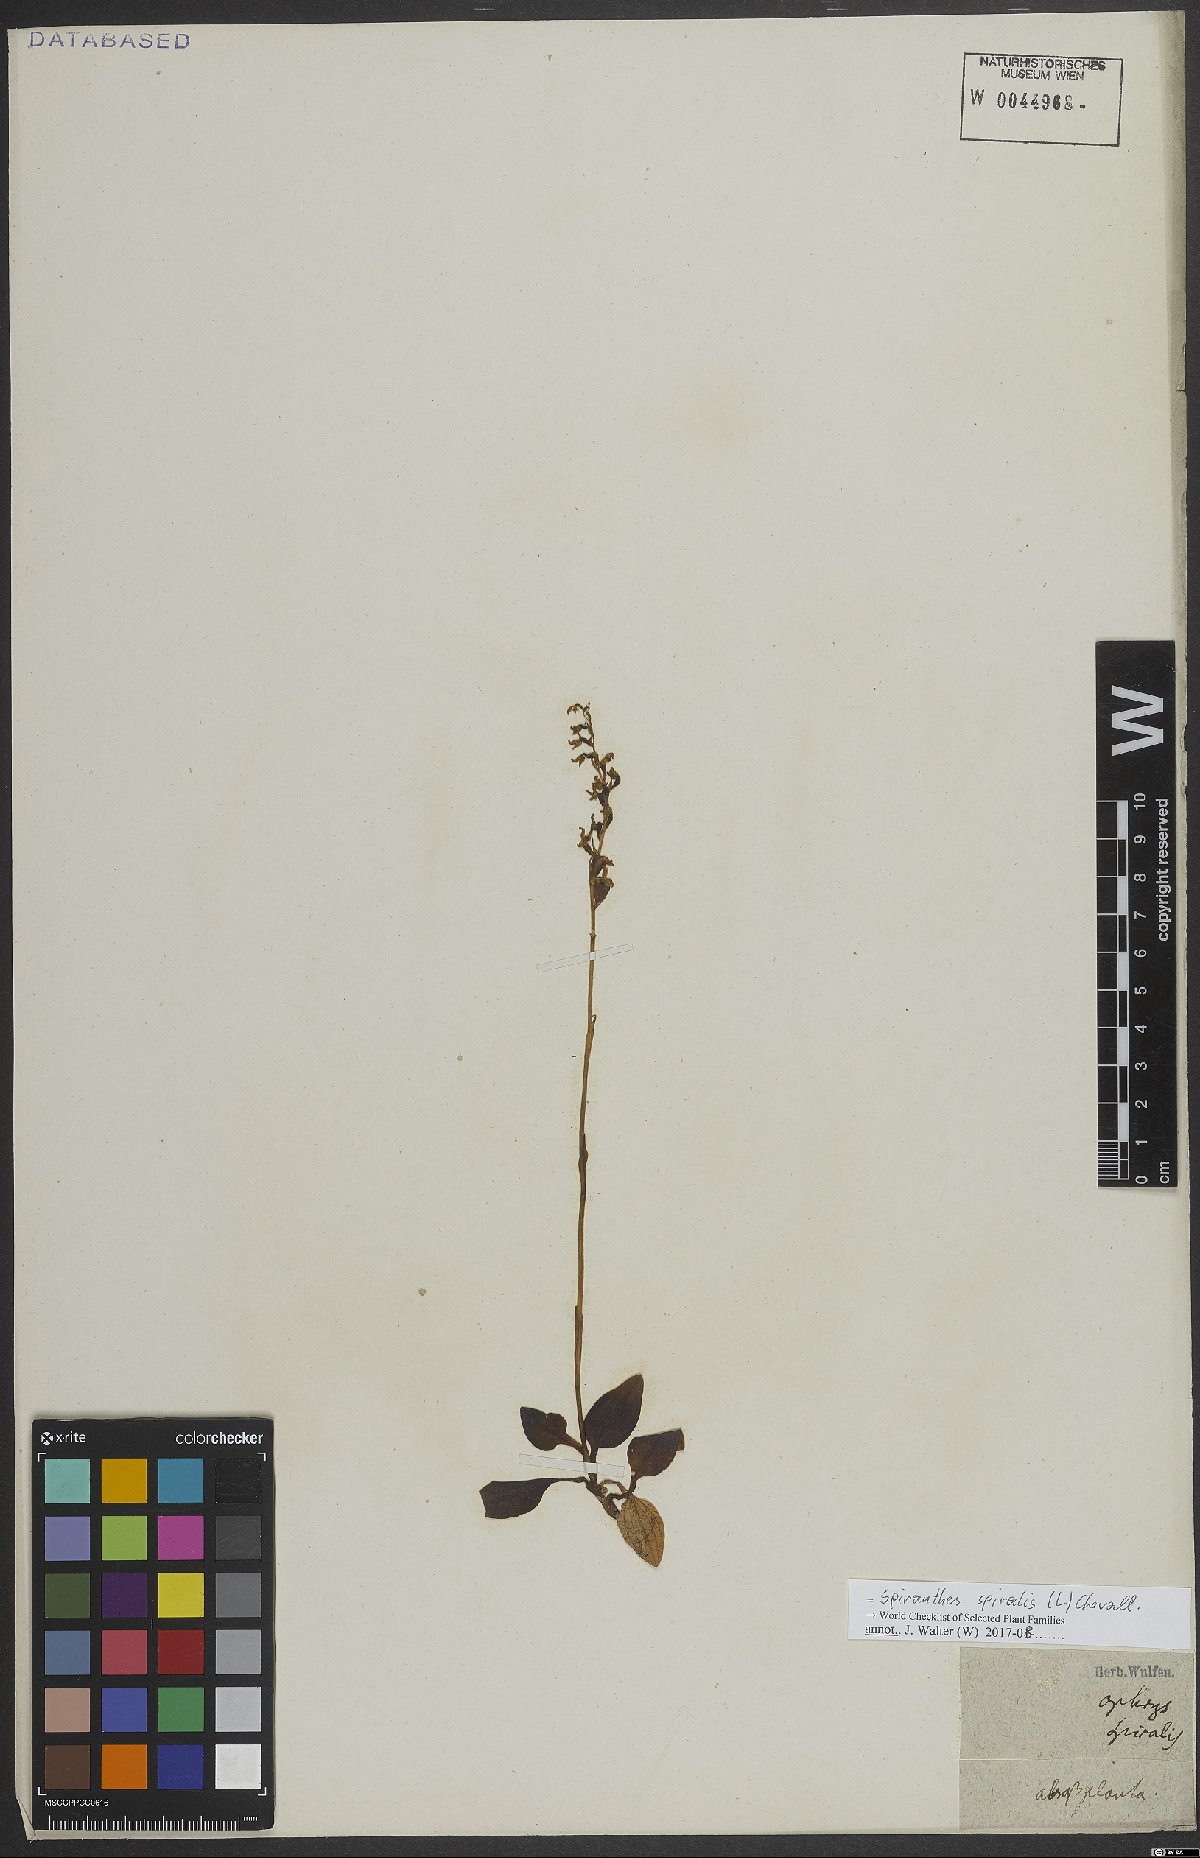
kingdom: Plantae
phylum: Tracheophyta
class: Liliopsida
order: Asparagales
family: Orchidaceae
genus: Spiranthes
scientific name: Spiranthes spiralis
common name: Autumn lady's-tresses
